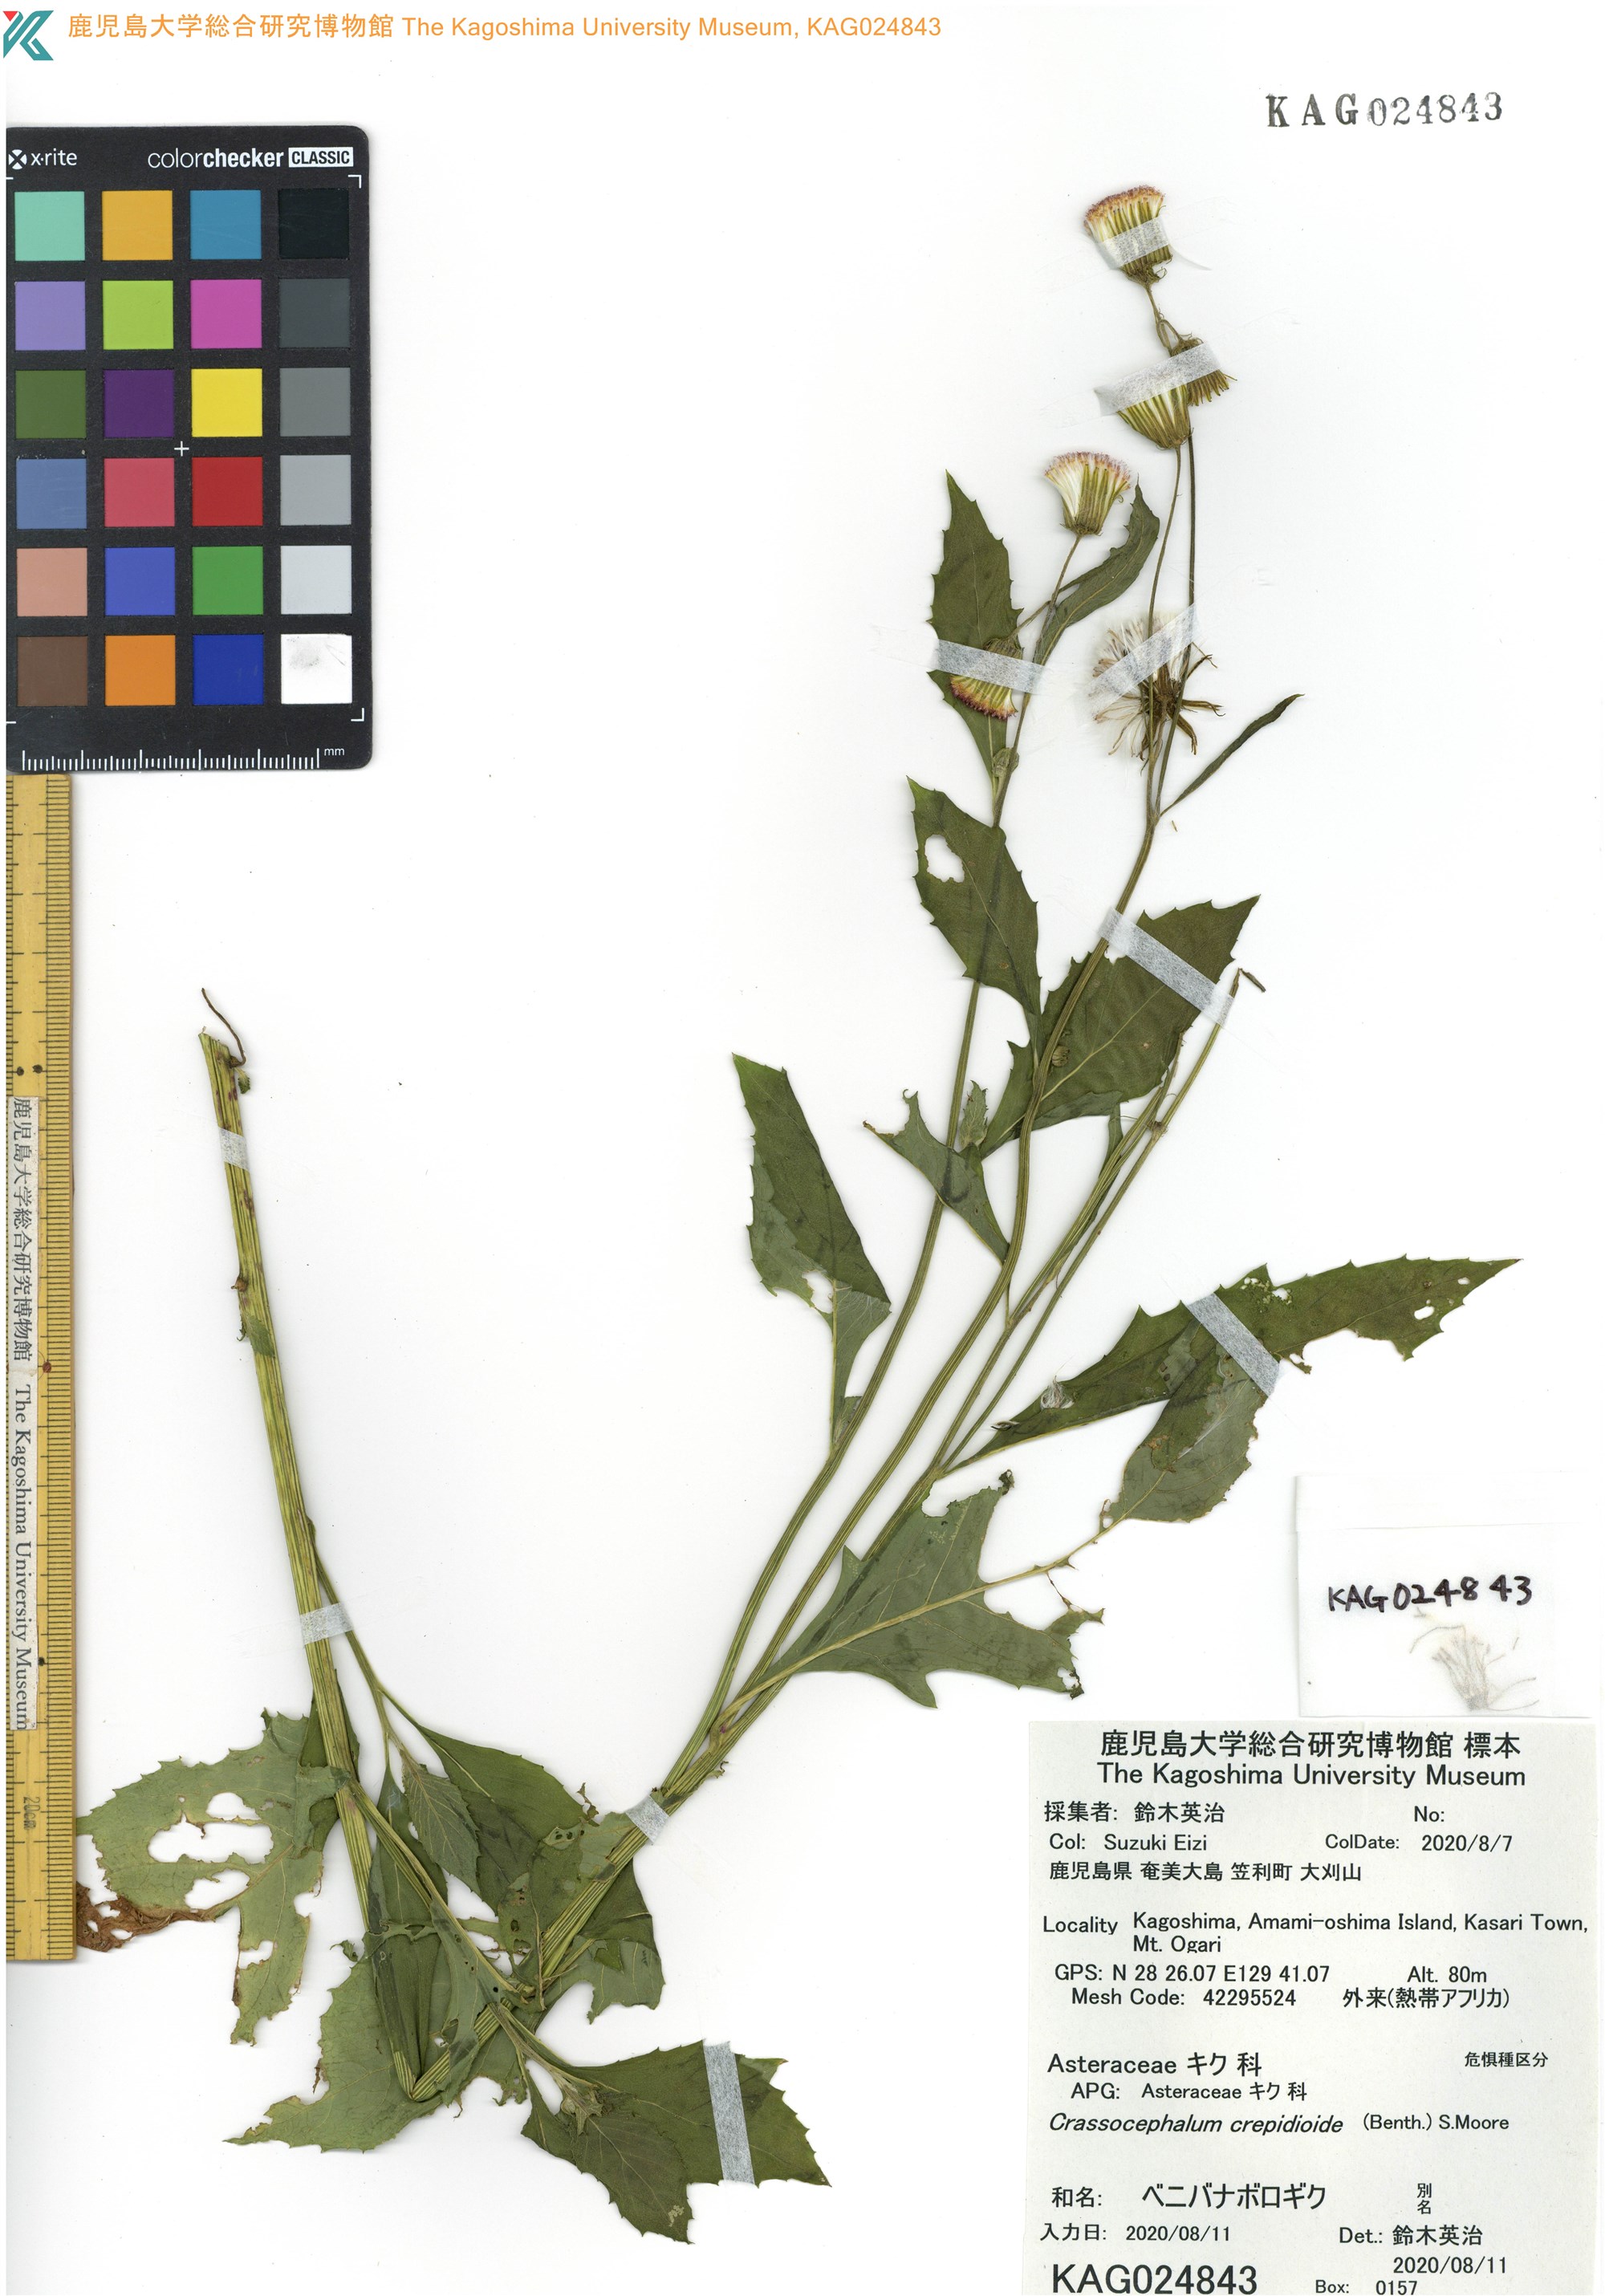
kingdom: Plantae
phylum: Tracheophyta
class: Magnoliopsida
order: Asterales
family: Asteraceae
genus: Crassocephalum
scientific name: Crassocephalum crepidioides
